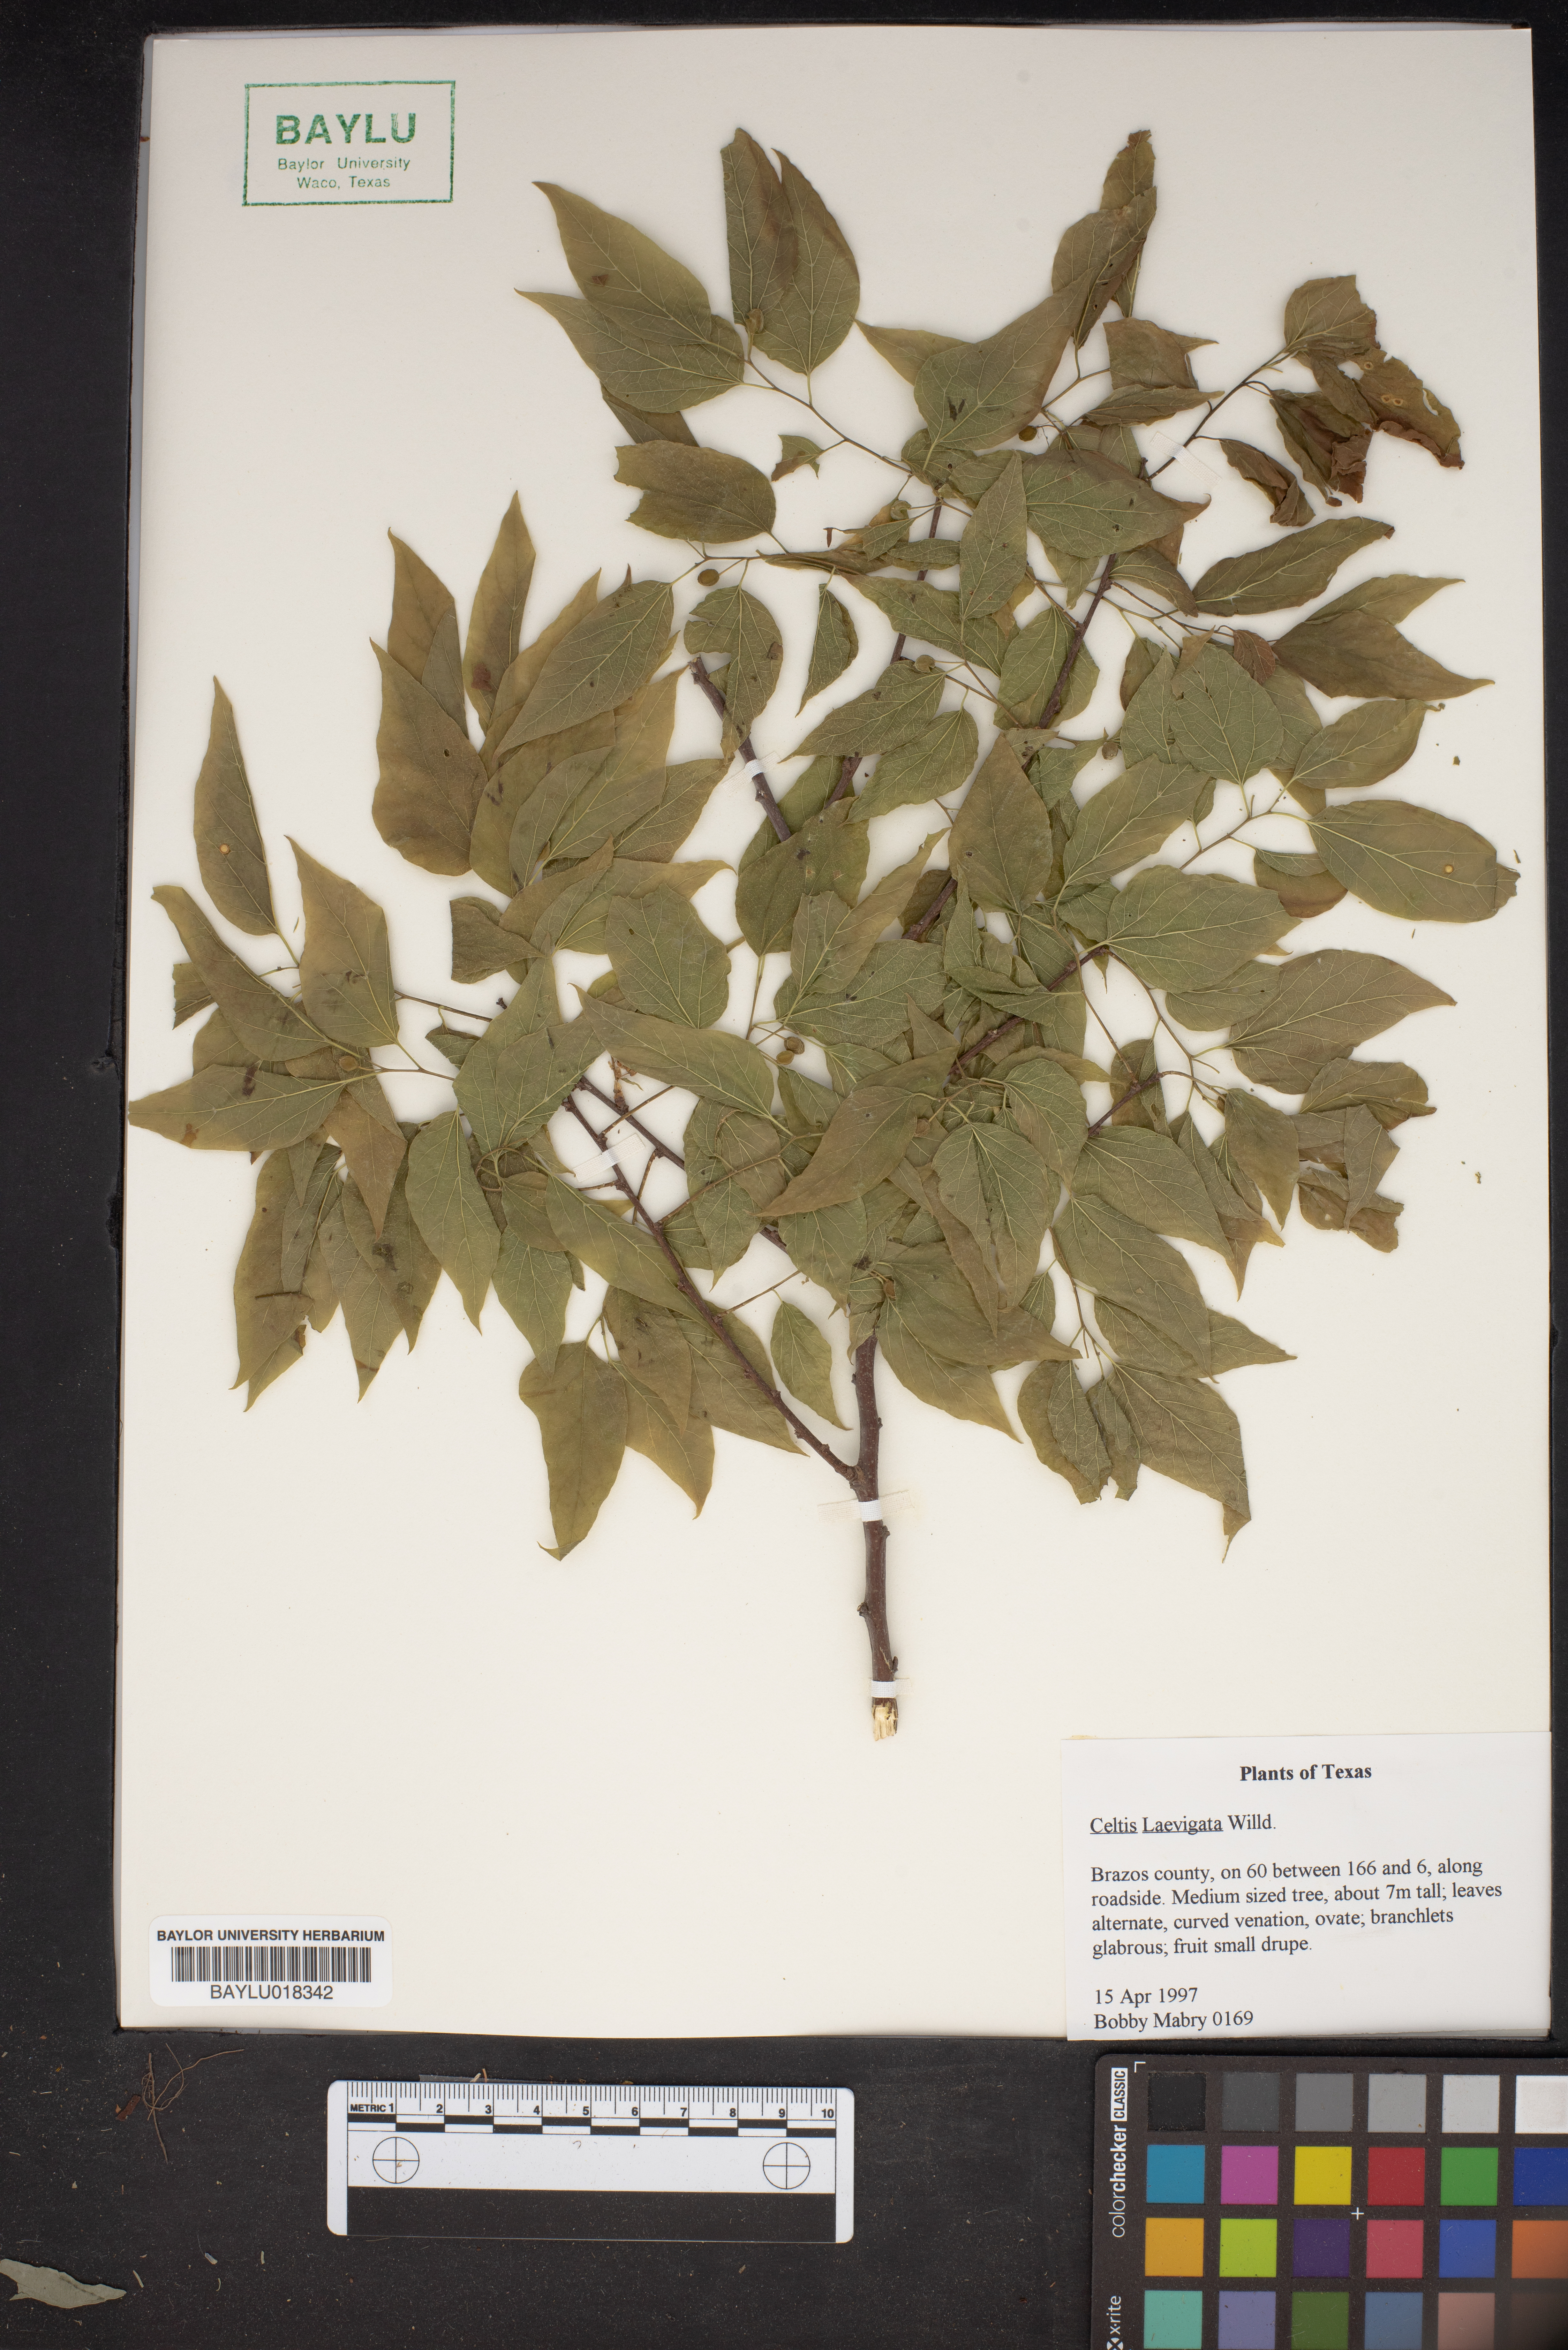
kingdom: Plantae
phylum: Tracheophyta
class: Magnoliopsida
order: Rosales
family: Cannabaceae
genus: Celtis
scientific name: Celtis laevigata
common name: Sugarberry
